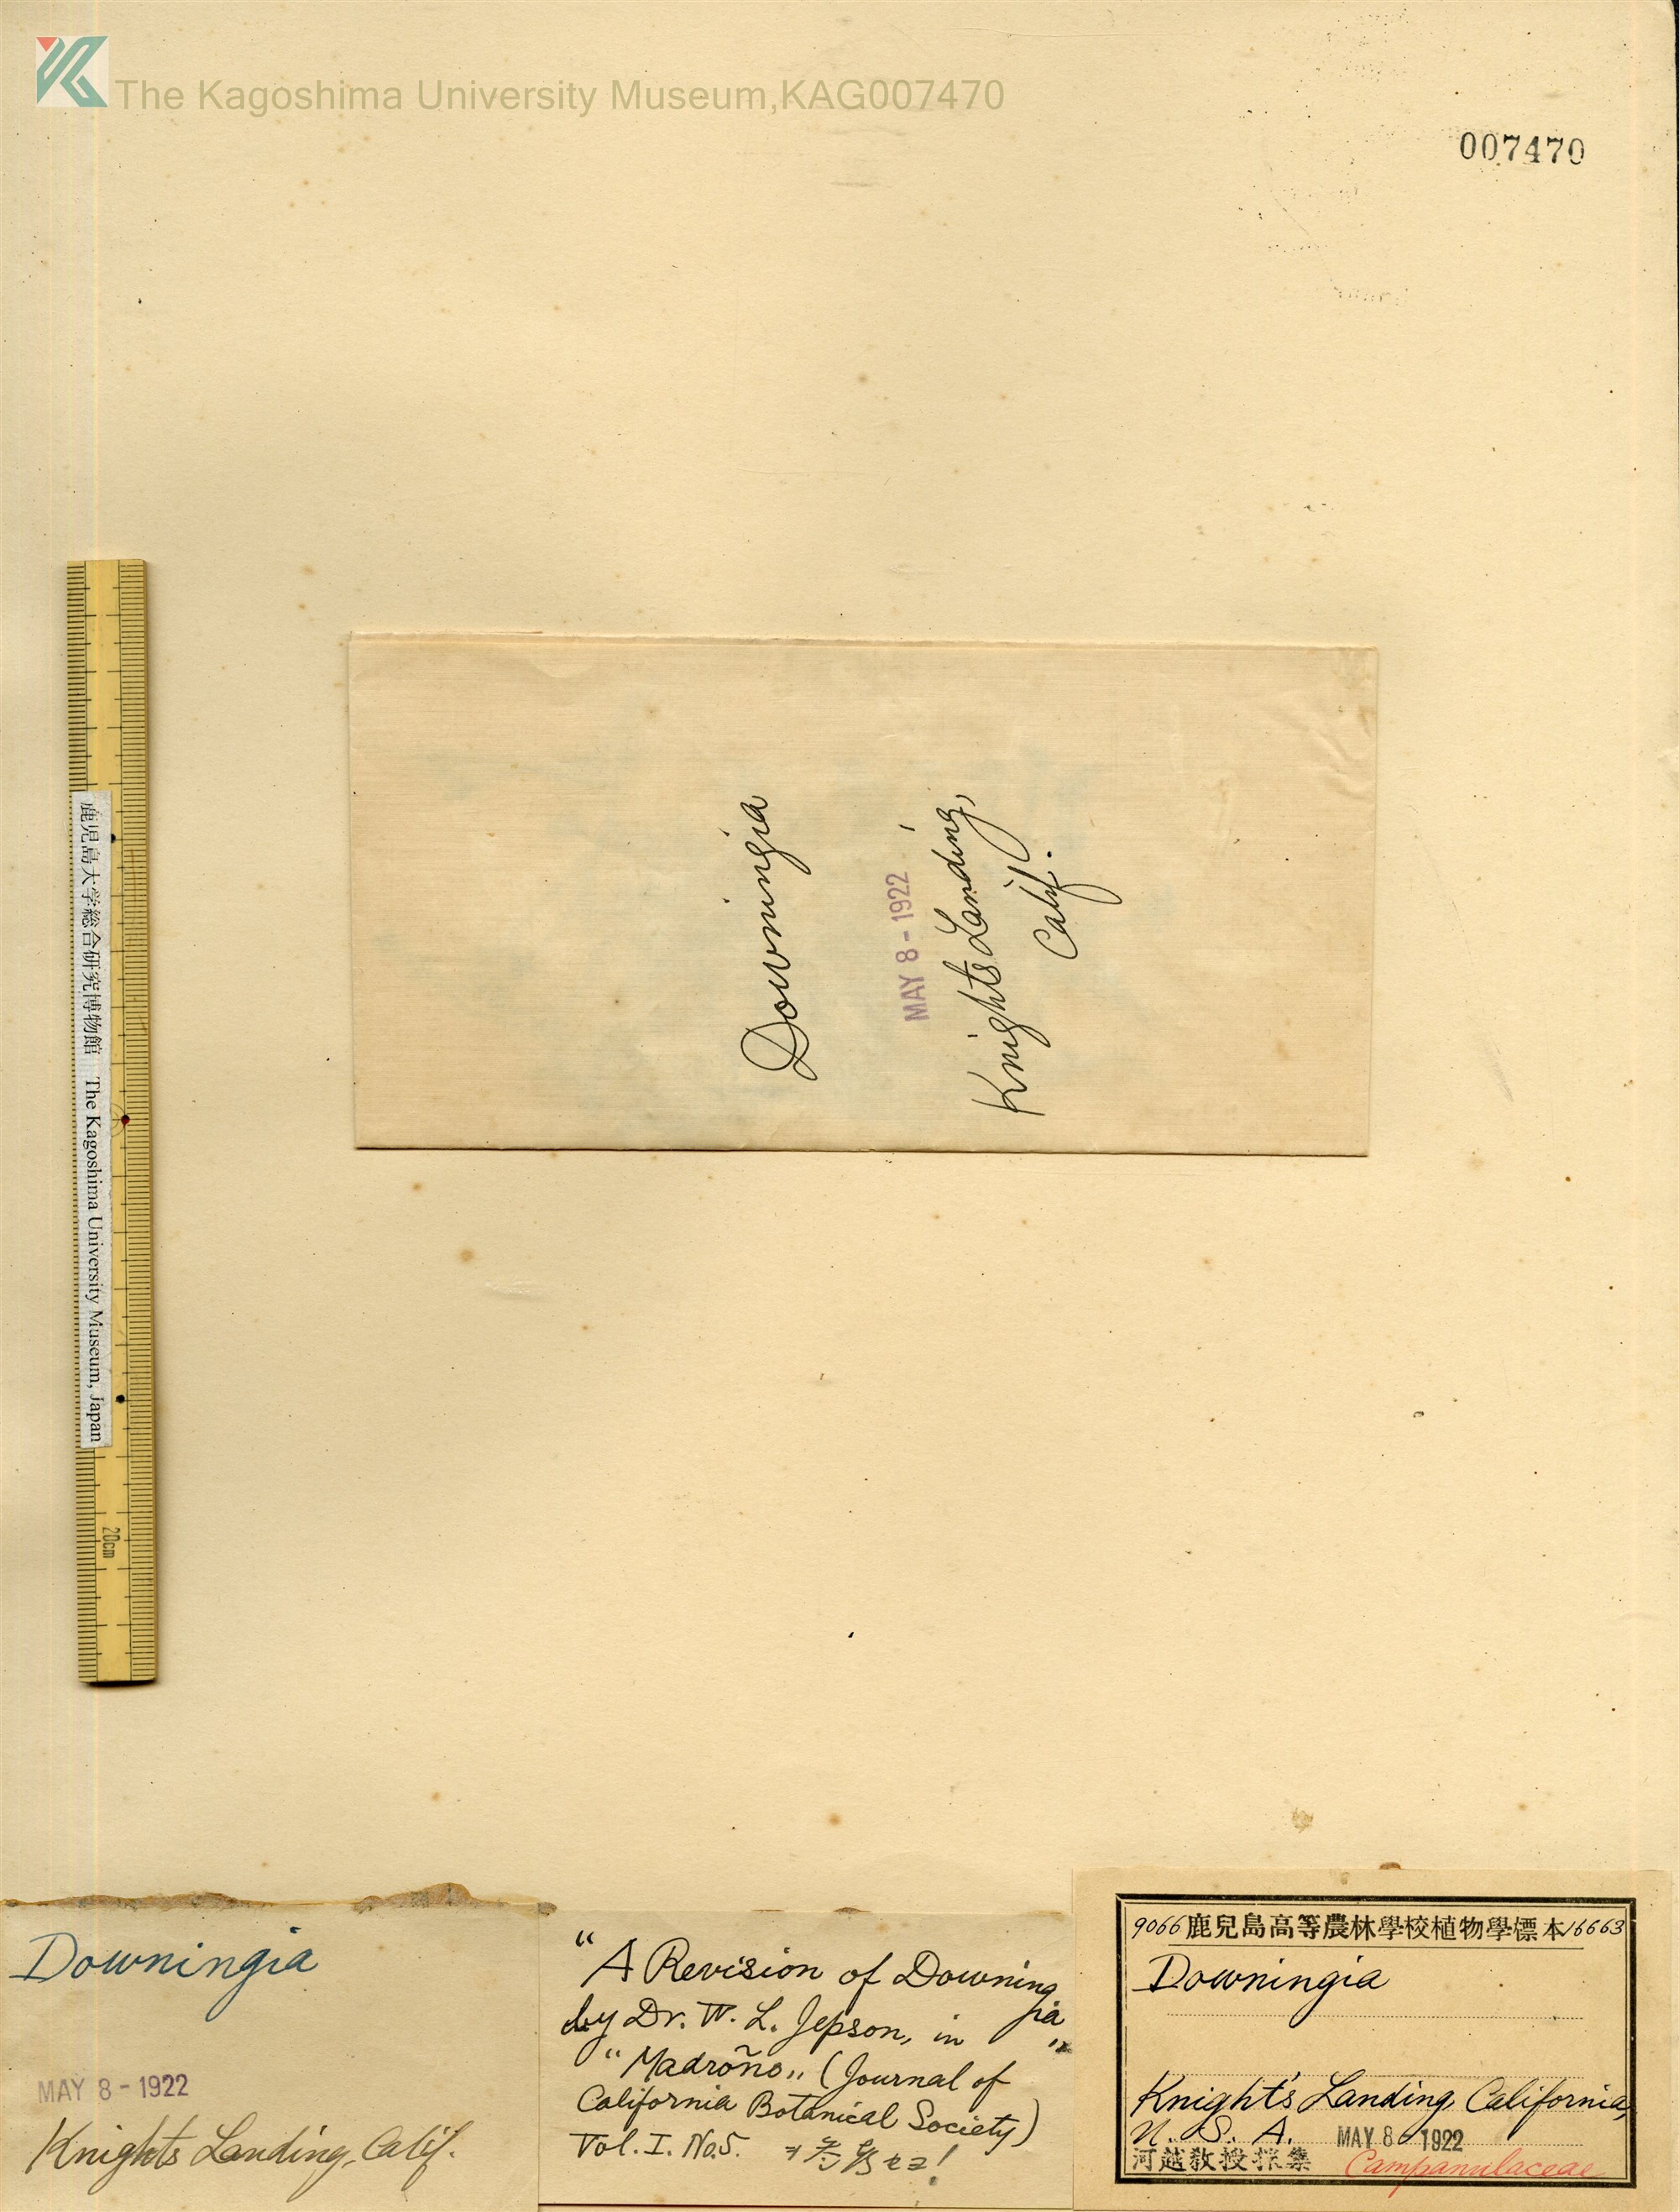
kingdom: Plantae
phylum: Tracheophyta
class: Magnoliopsida
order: Asterales
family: Campanulaceae
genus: Downingia
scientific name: Downingia
